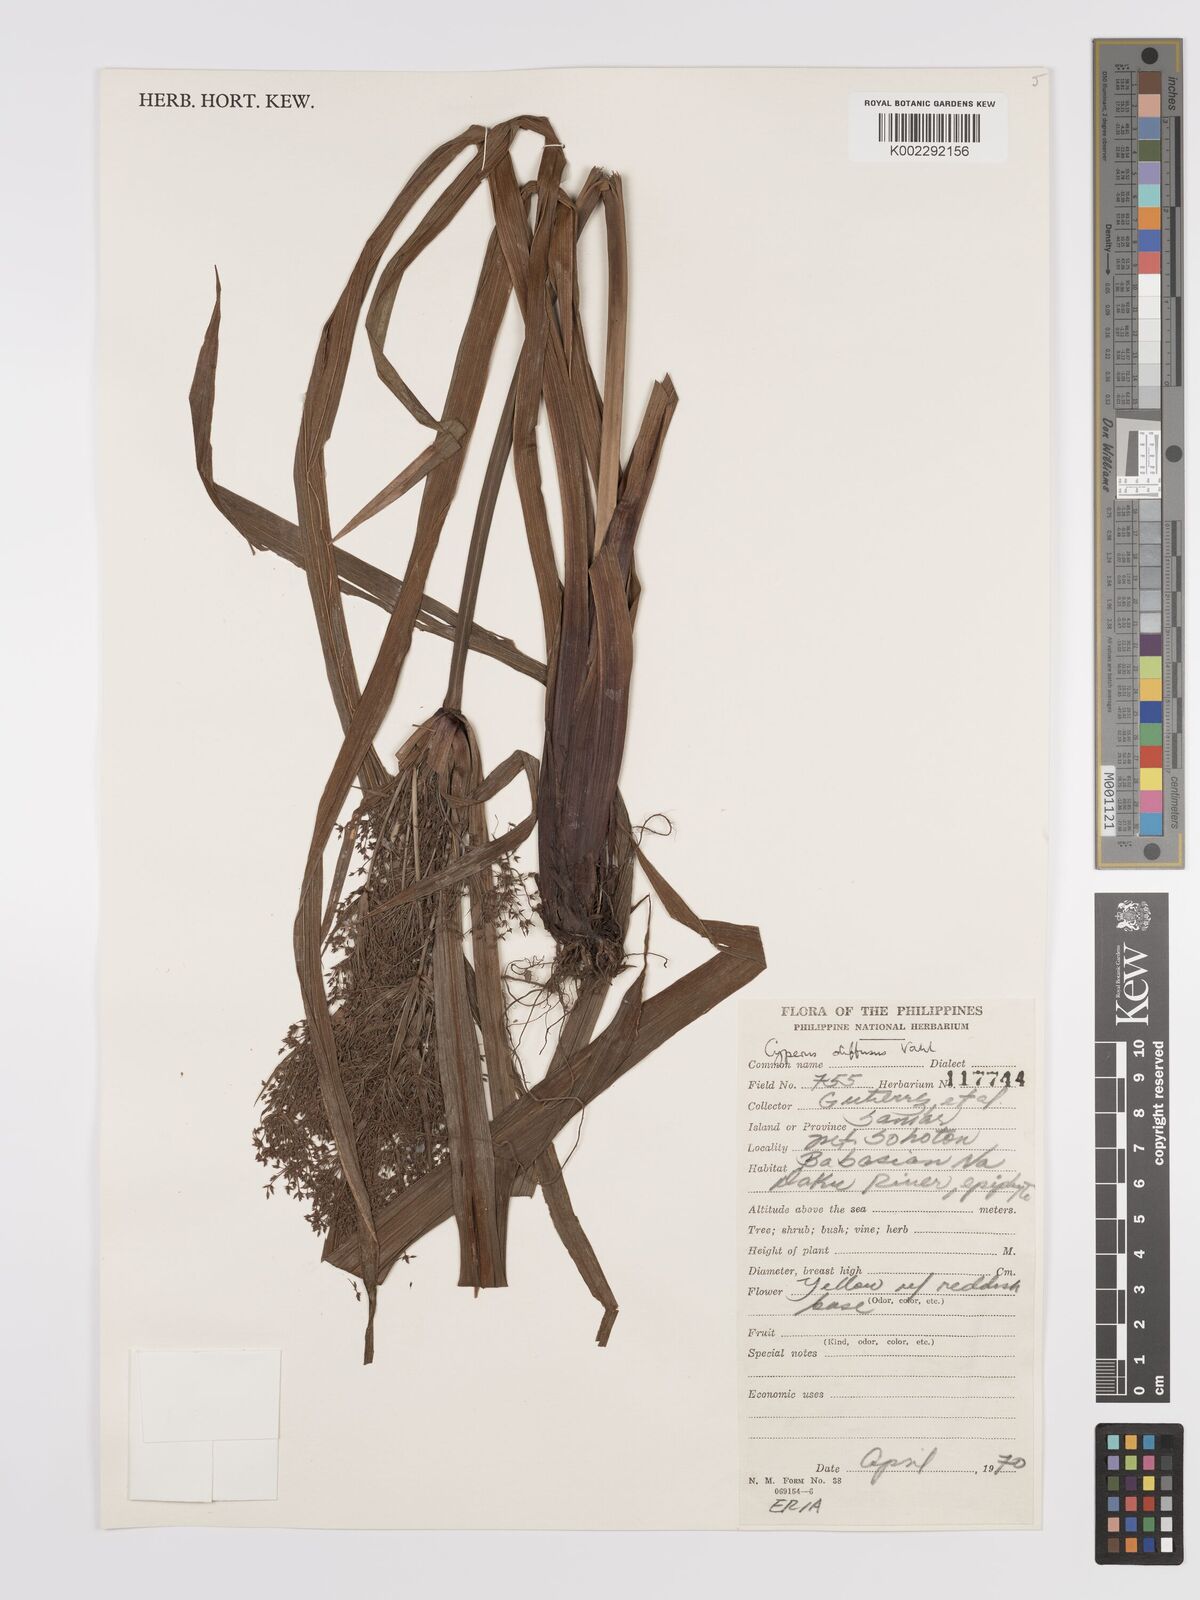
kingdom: Plantae
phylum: Tracheophyta
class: Liliopsida
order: Poales
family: Cyperaceae
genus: Cyperus
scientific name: Cyperus diffusus
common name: Dwarf umbrella grass
